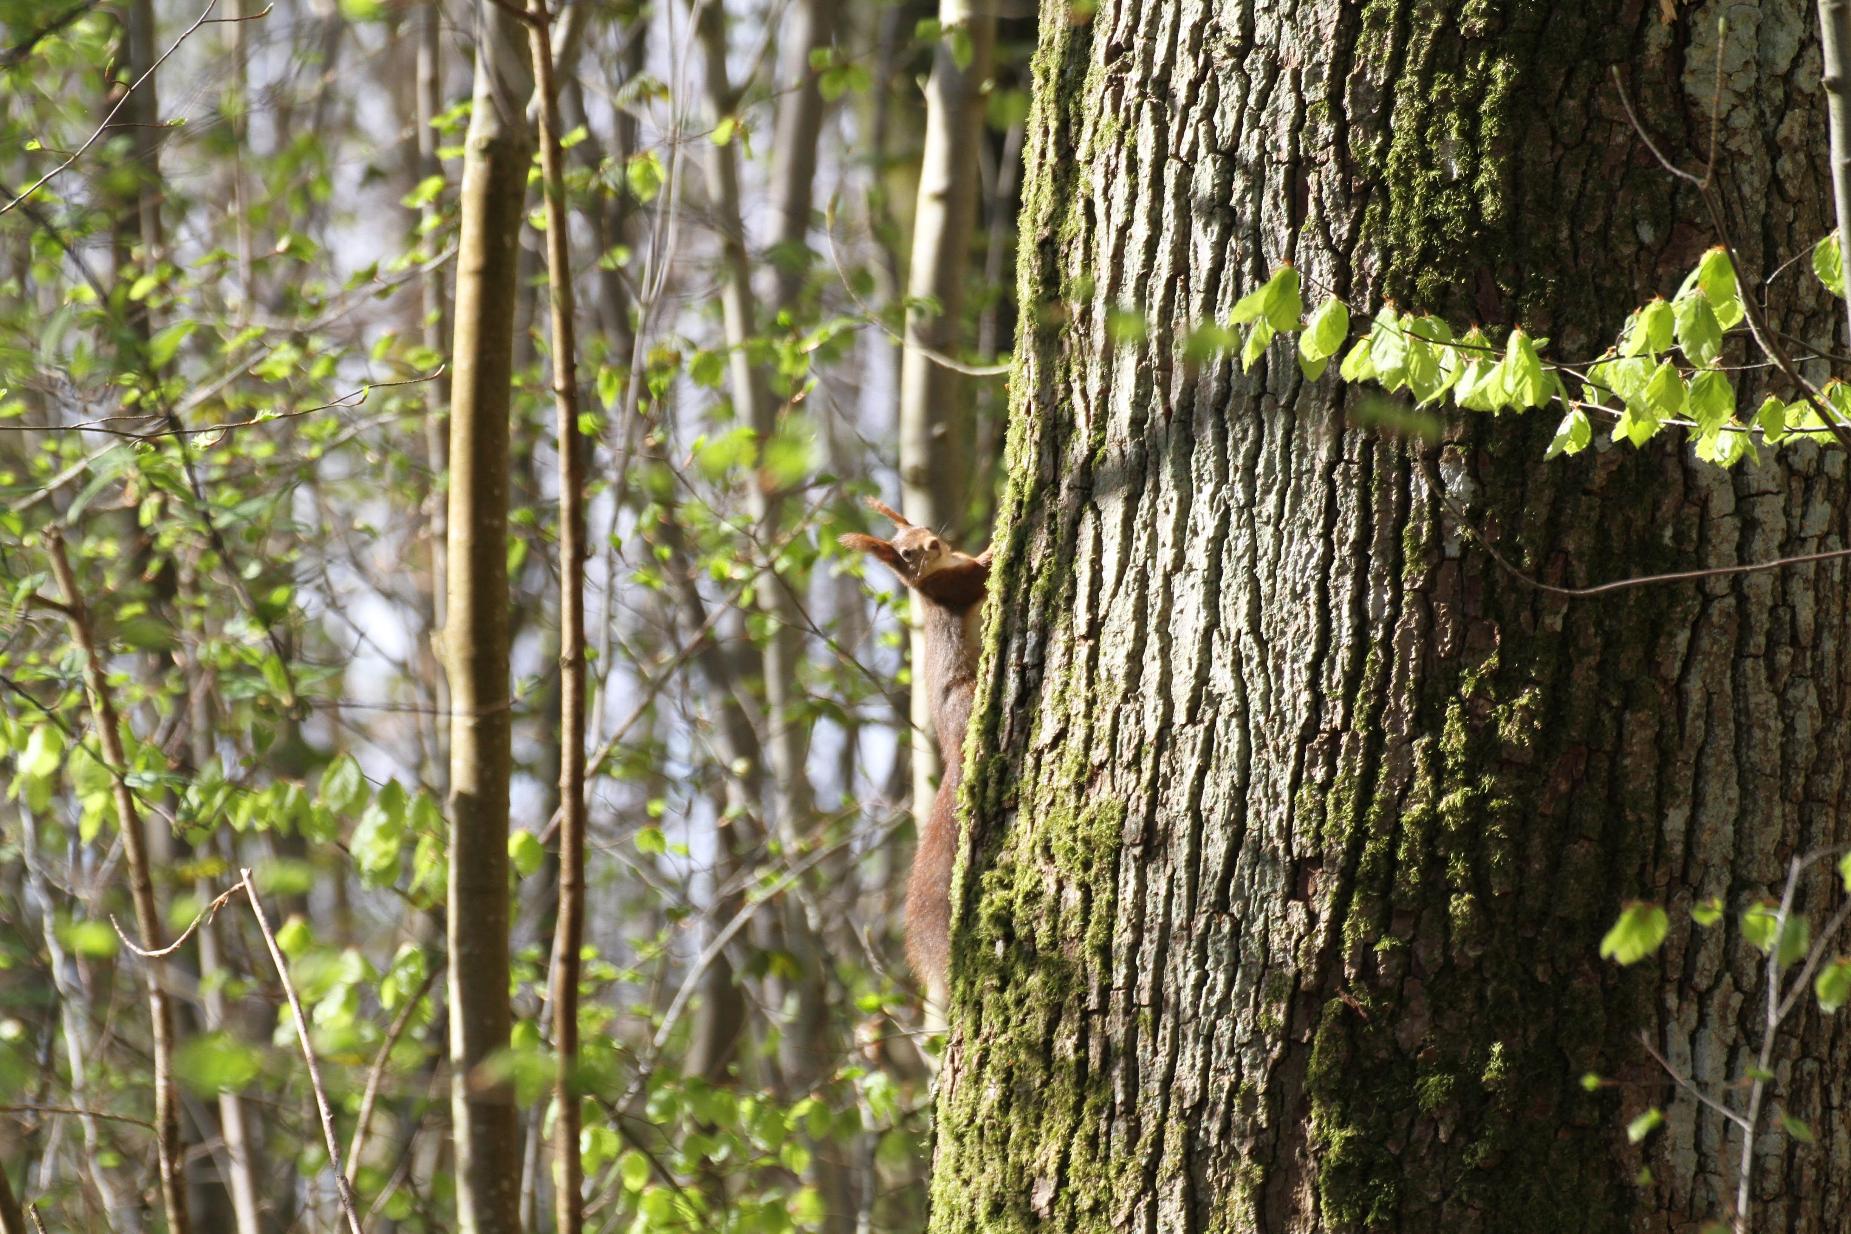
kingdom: Animalia
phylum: Chordata
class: Mammalia
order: Rodentia
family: Sciuridae
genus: Sciurus
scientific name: Sciurus vulgaris
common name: Egern
